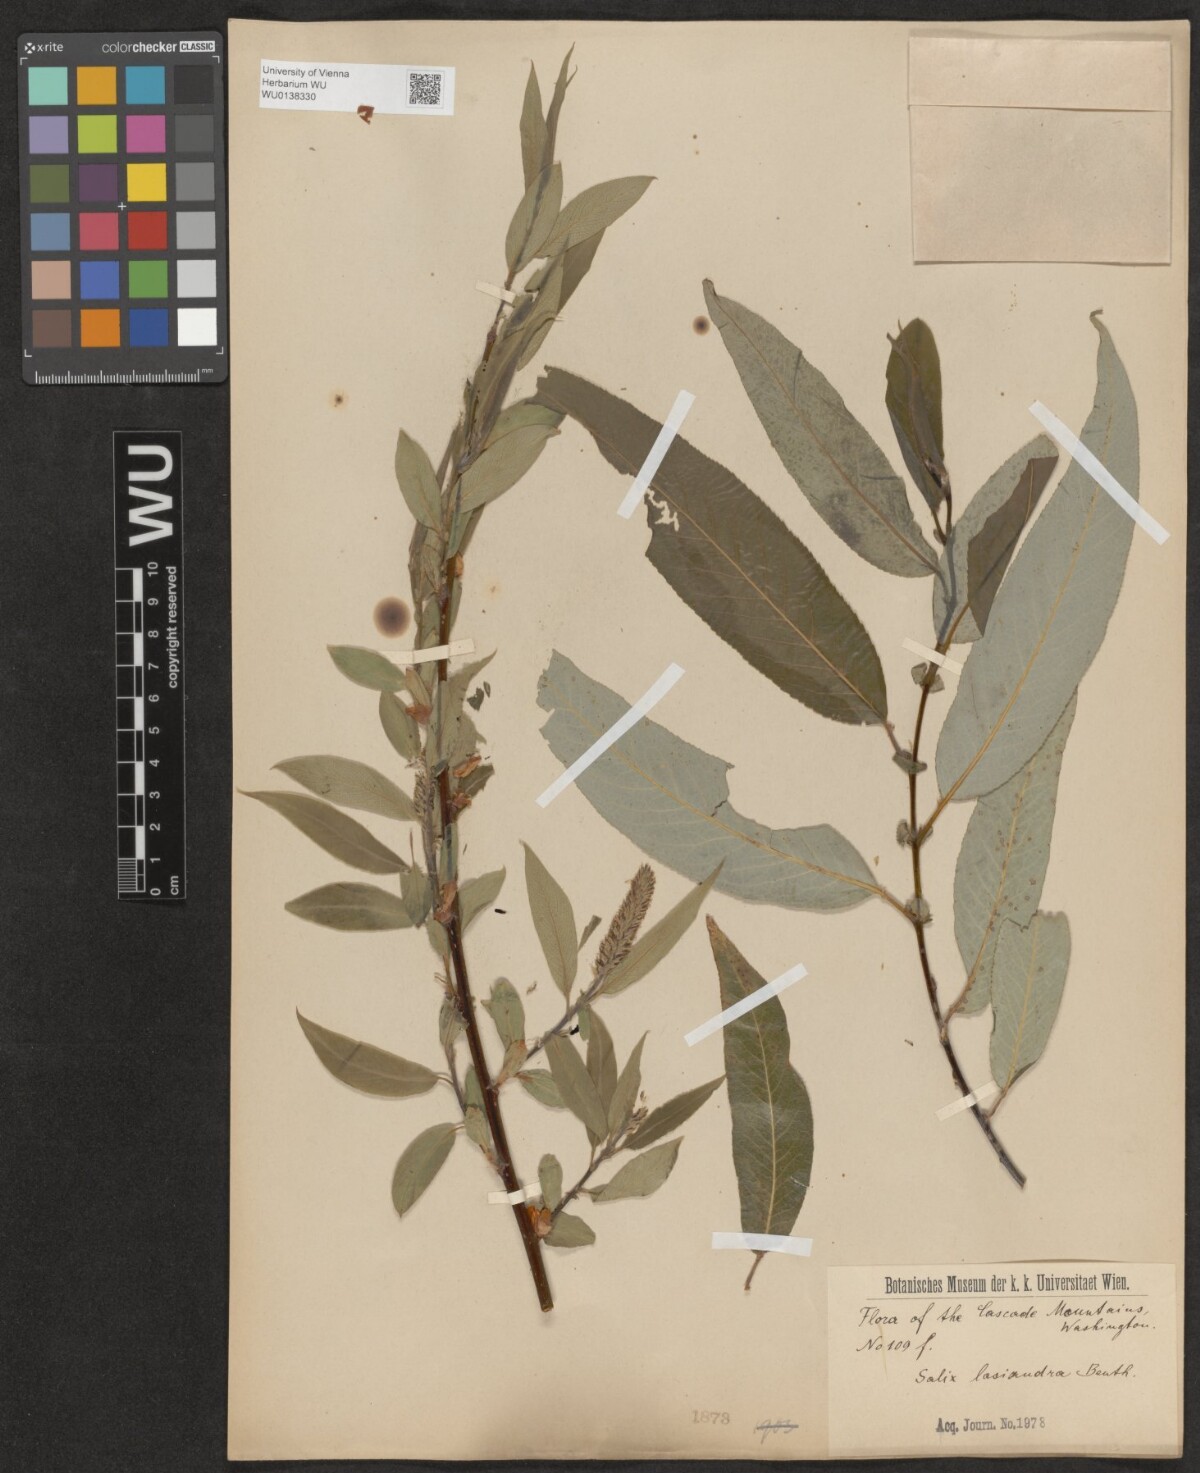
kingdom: Plantae
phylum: Tracheophyta
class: Magnoliopsida
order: Malpighiales
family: Salicaceae
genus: Salix
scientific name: Salix lucida
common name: Shining willow
